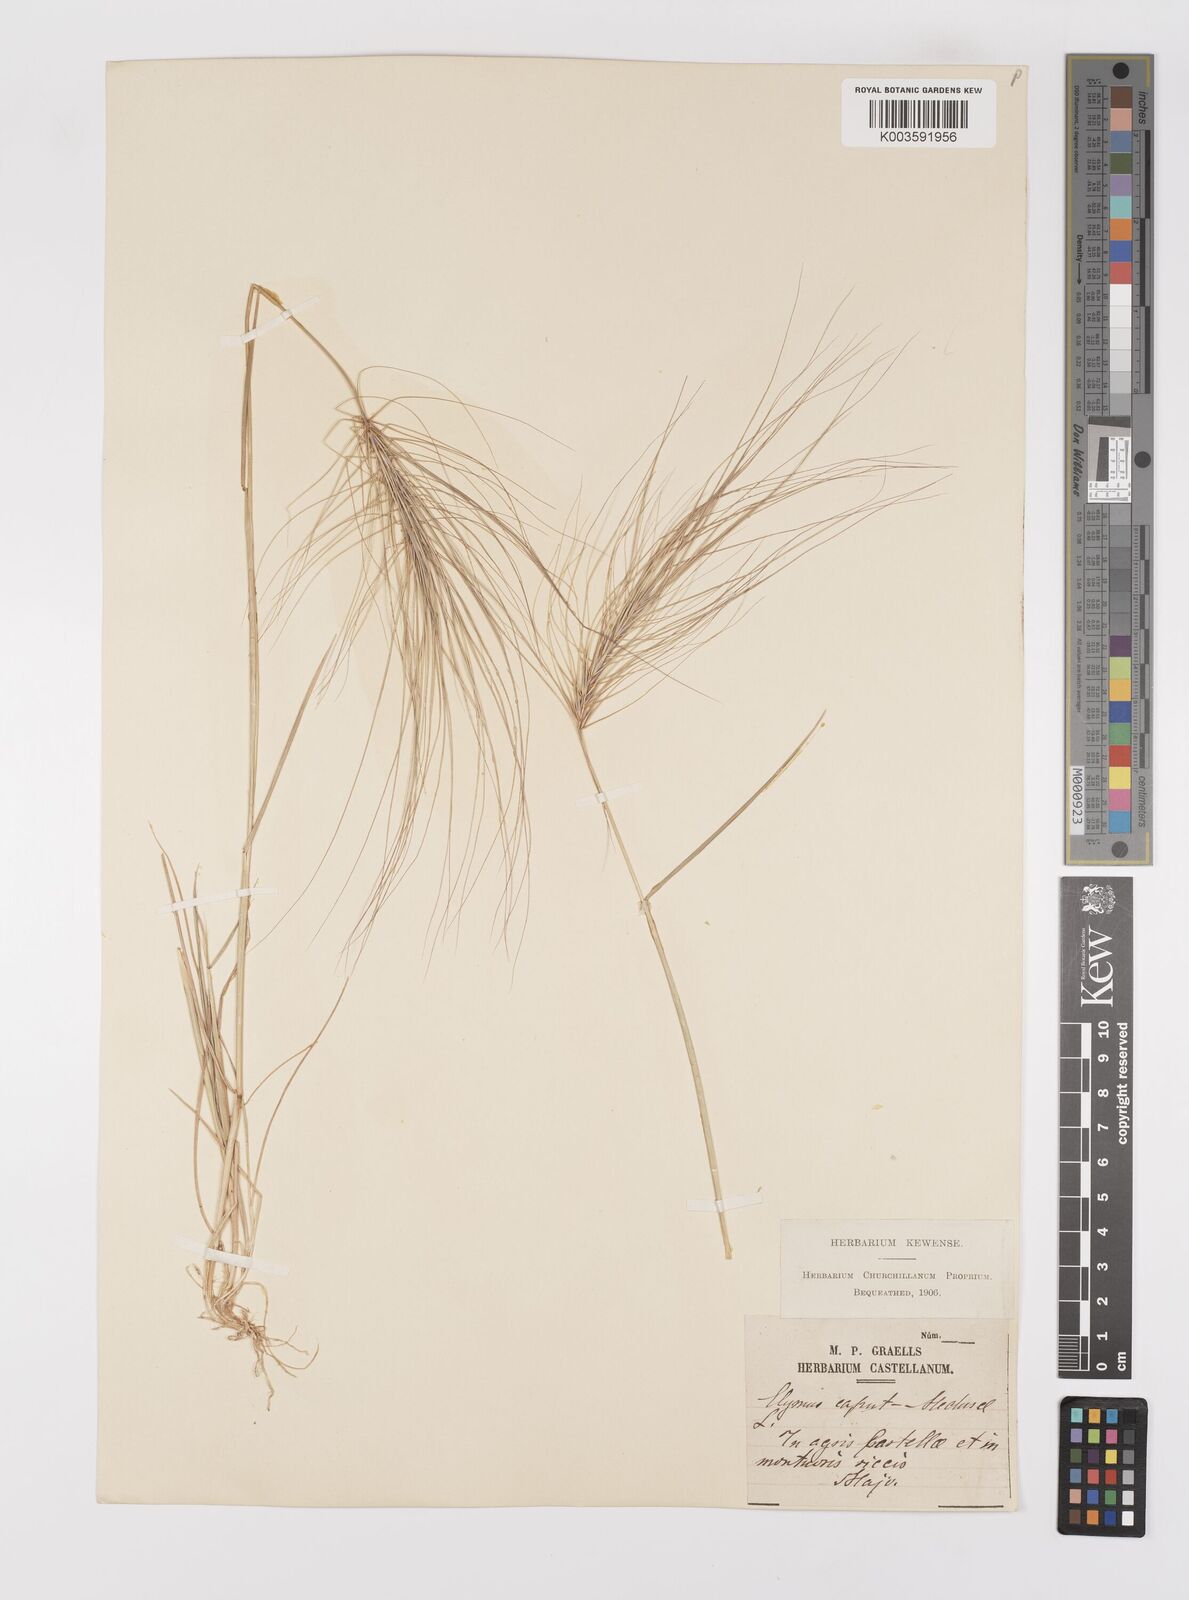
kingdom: Plantae
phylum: Tracheophyta
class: Liliopsida
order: Poales
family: Poaceae
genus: Taeniatherum
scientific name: Taeniatherum caput-medusae
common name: Medusahead
